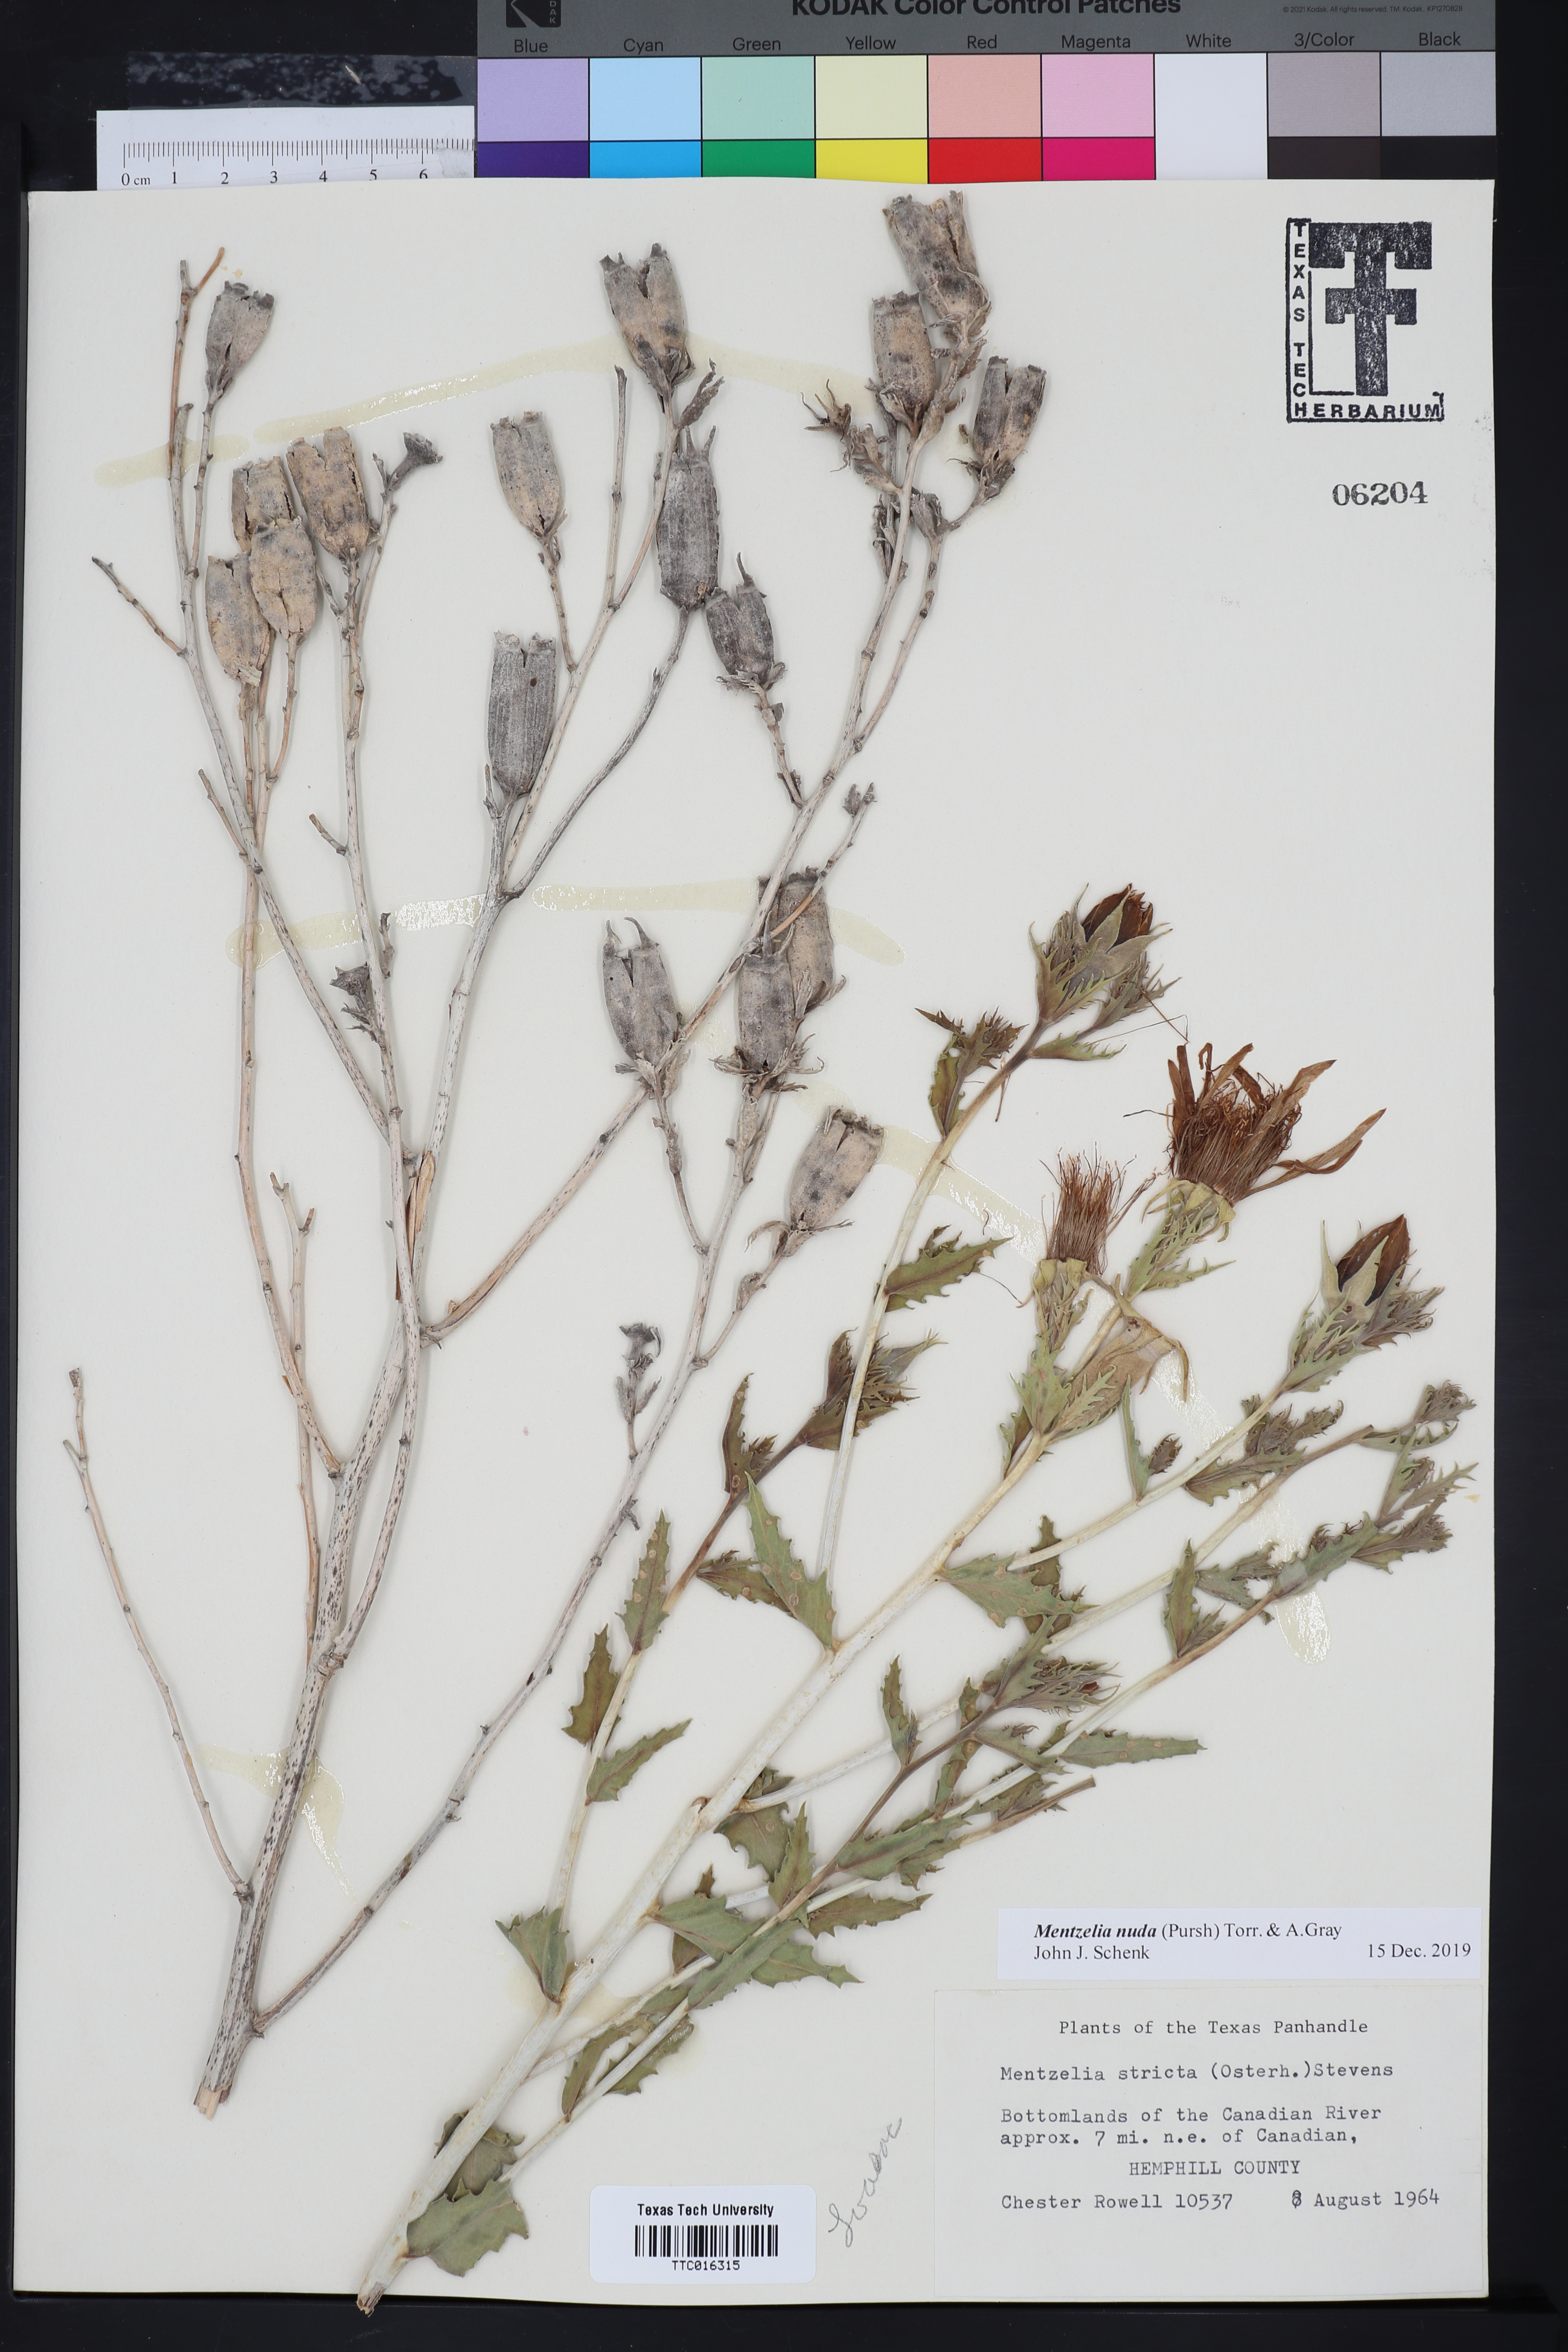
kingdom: Plantae
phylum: Tracheophyta
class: Magnoliopsida
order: Cornales
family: Loasaceae
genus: Mentzelia
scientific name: Mentzelia nuda
